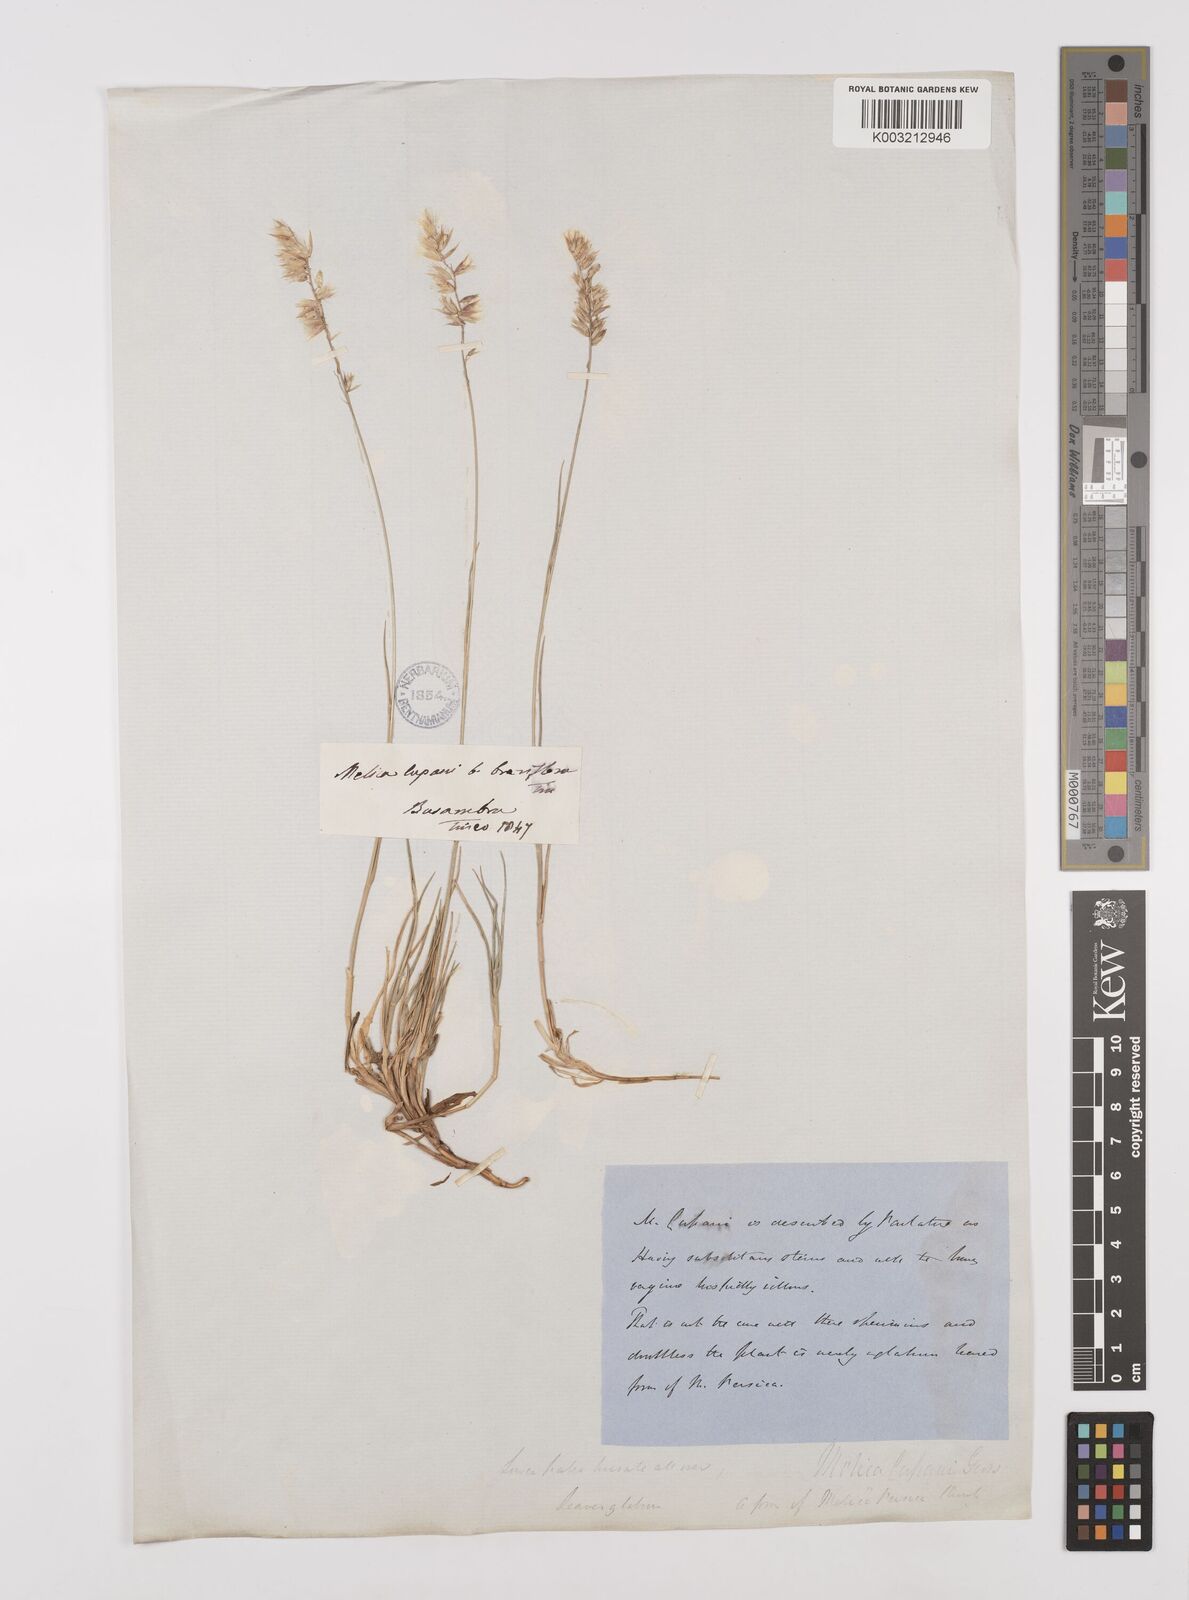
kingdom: Plantae
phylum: Tracheophyta
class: Liliopsida
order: Poales
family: Poaceae
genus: Melica
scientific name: Melica cupani
